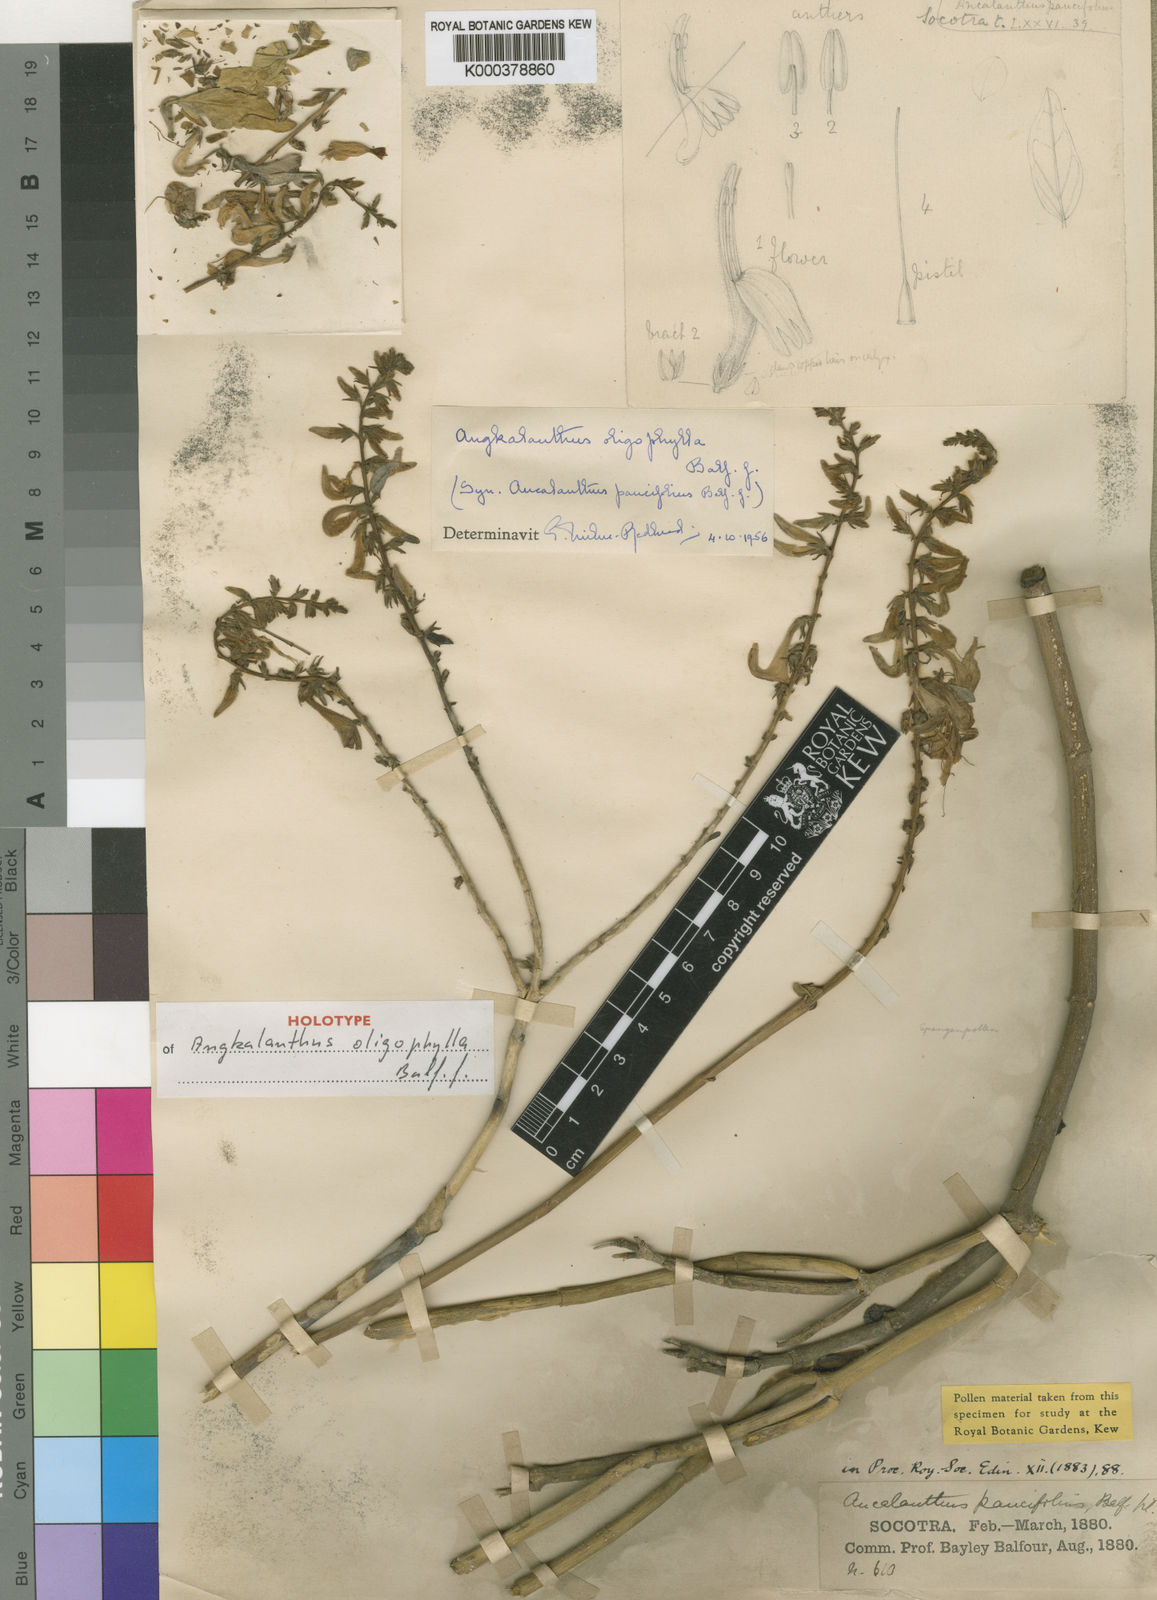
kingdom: Plantae
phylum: Tracheophyta
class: Magnoliopsida
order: Lamiales
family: Acanthaceae
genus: Angkalanthus
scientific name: Angkalanthus oligophylla
